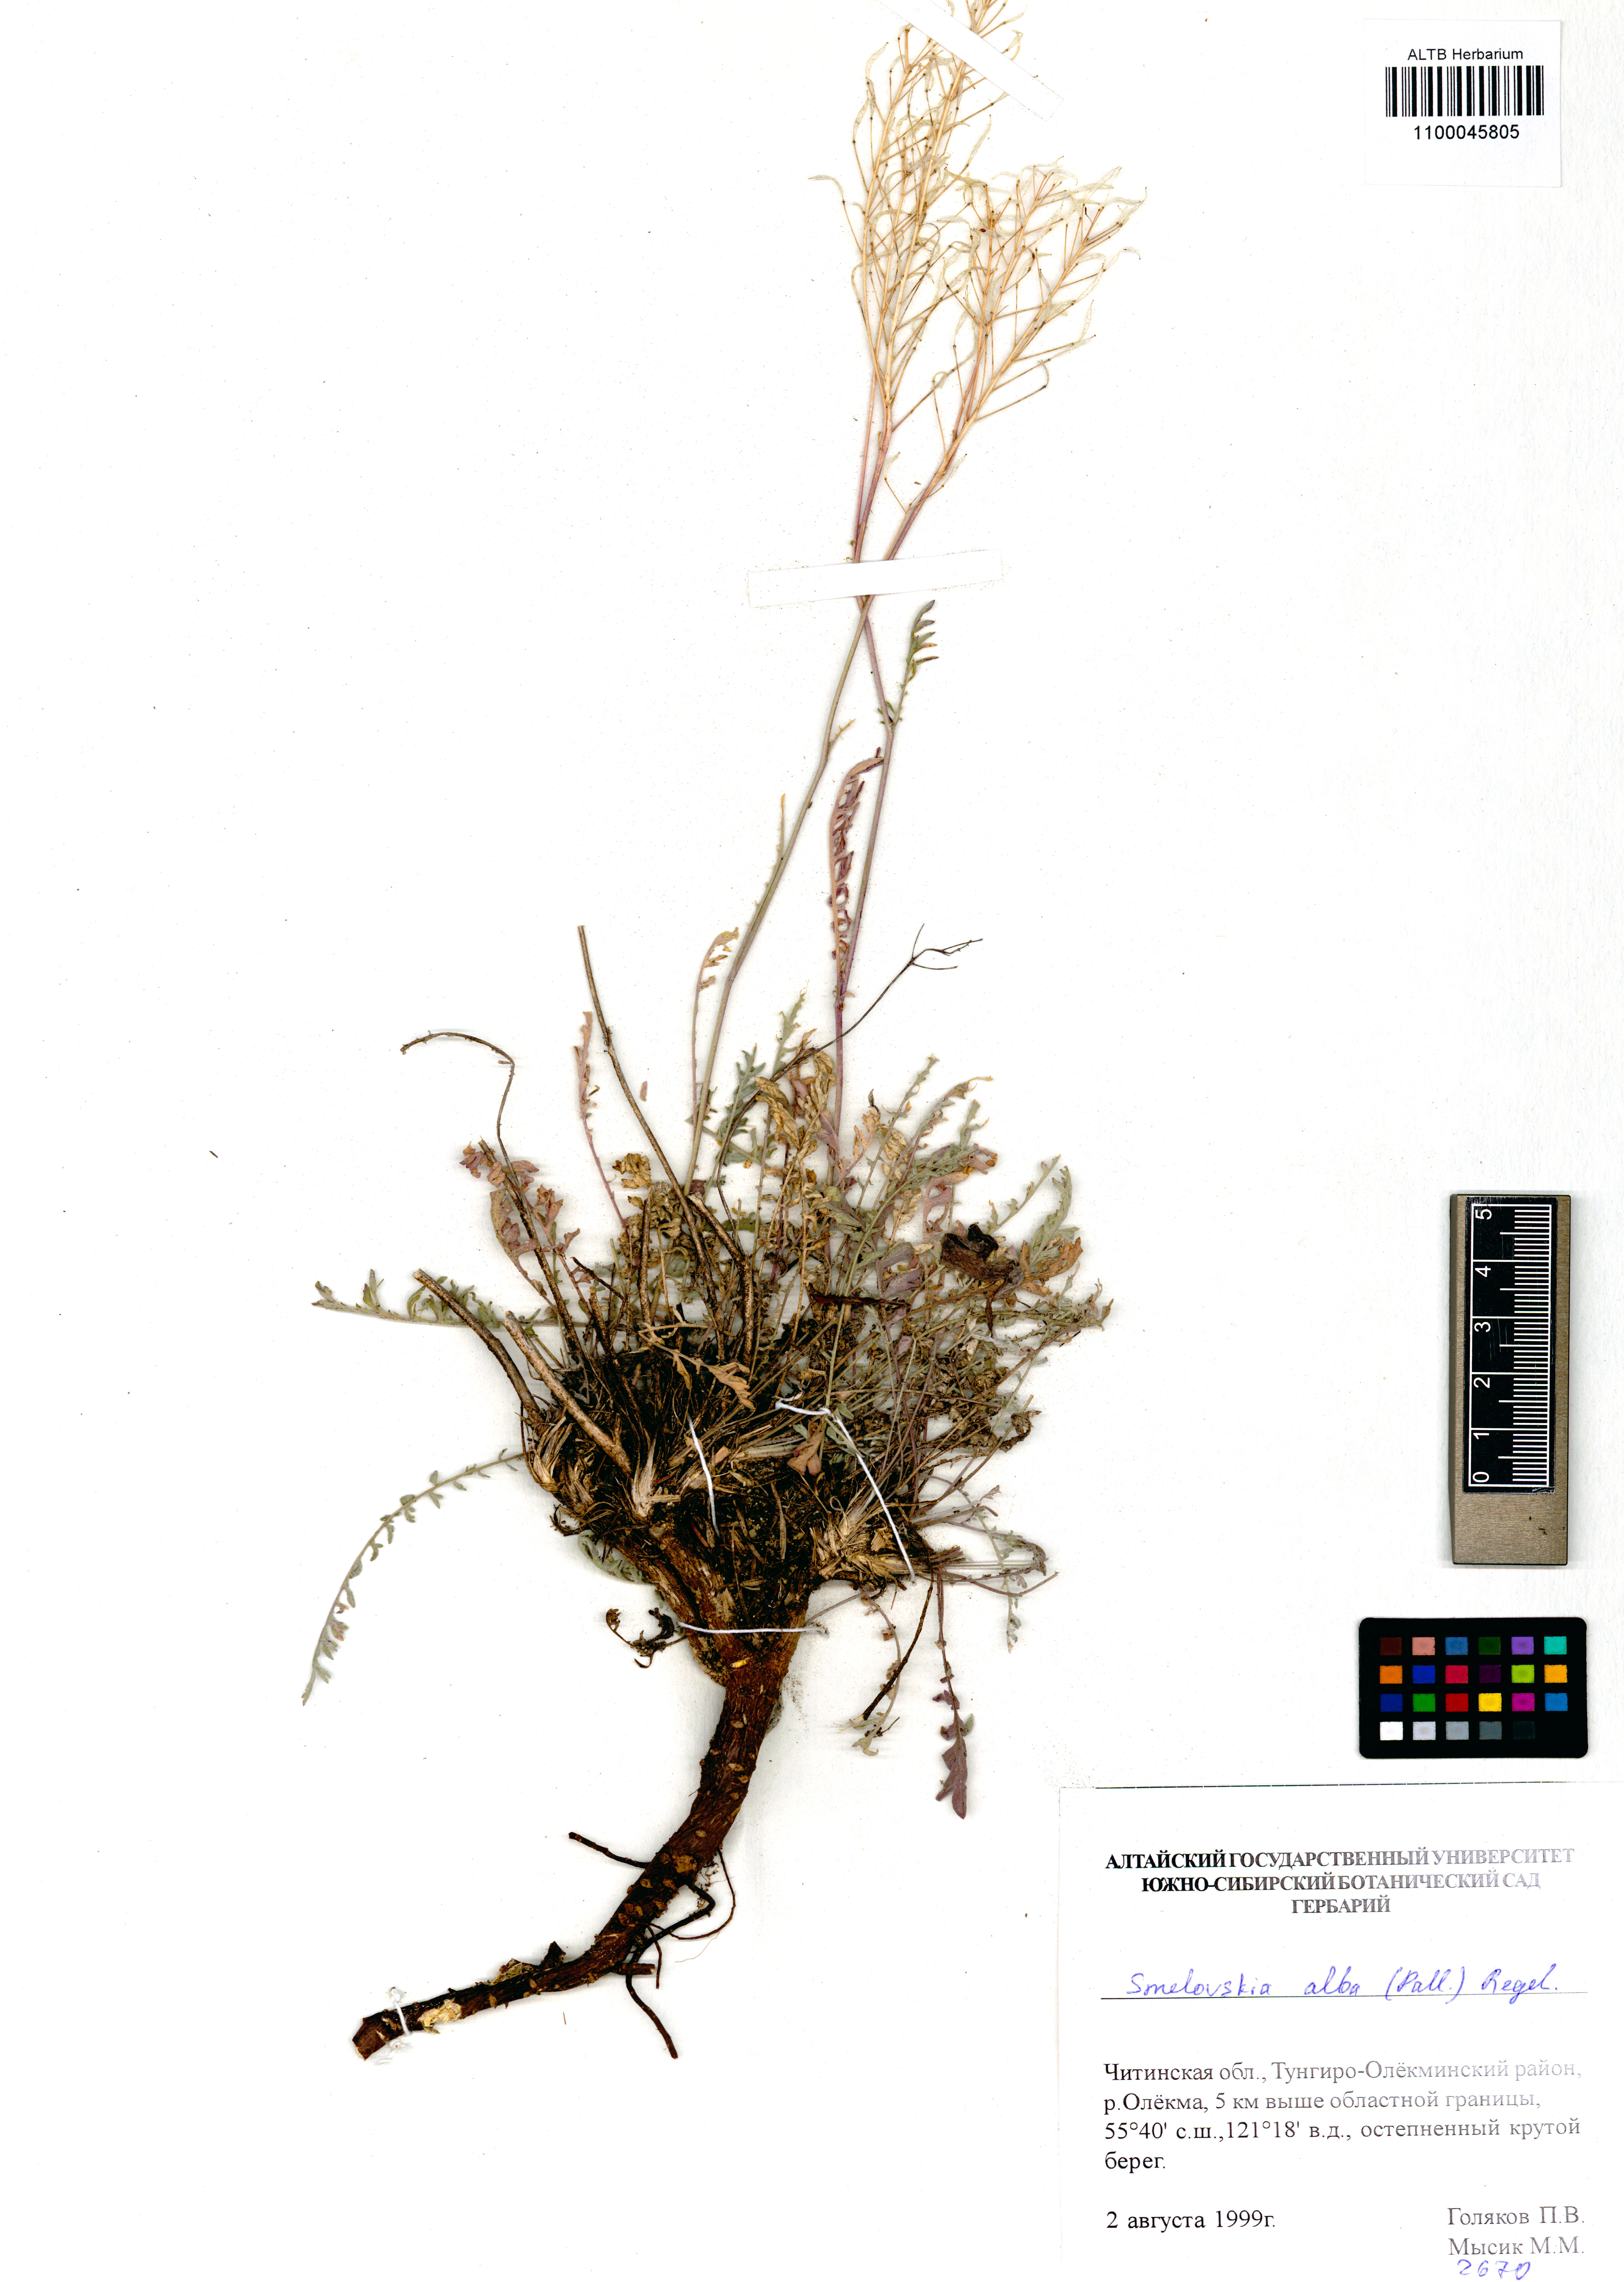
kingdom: Plantae
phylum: Tracheophyta
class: Magnoliopsida
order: Brassicales
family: Brassicaceae
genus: Smelowskia
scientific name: Smelowskia alba
